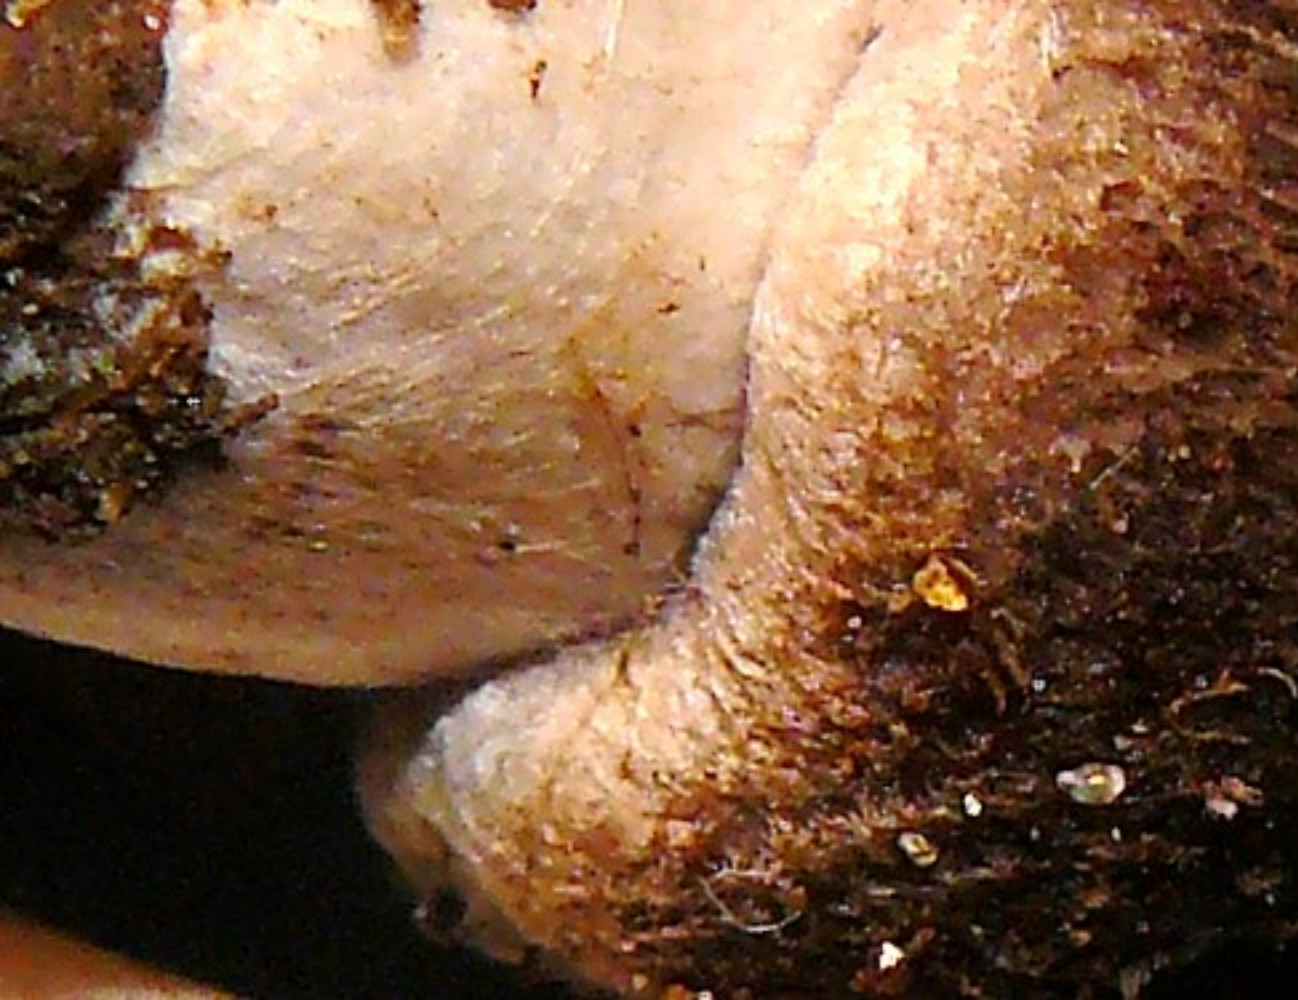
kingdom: Fungi
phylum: Basidiomycota
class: Agaricomycetes
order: Agaricales
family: Tricholomataceae
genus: Tricholoma
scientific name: Tricholoma terreum
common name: jordfarvet ridderhat
